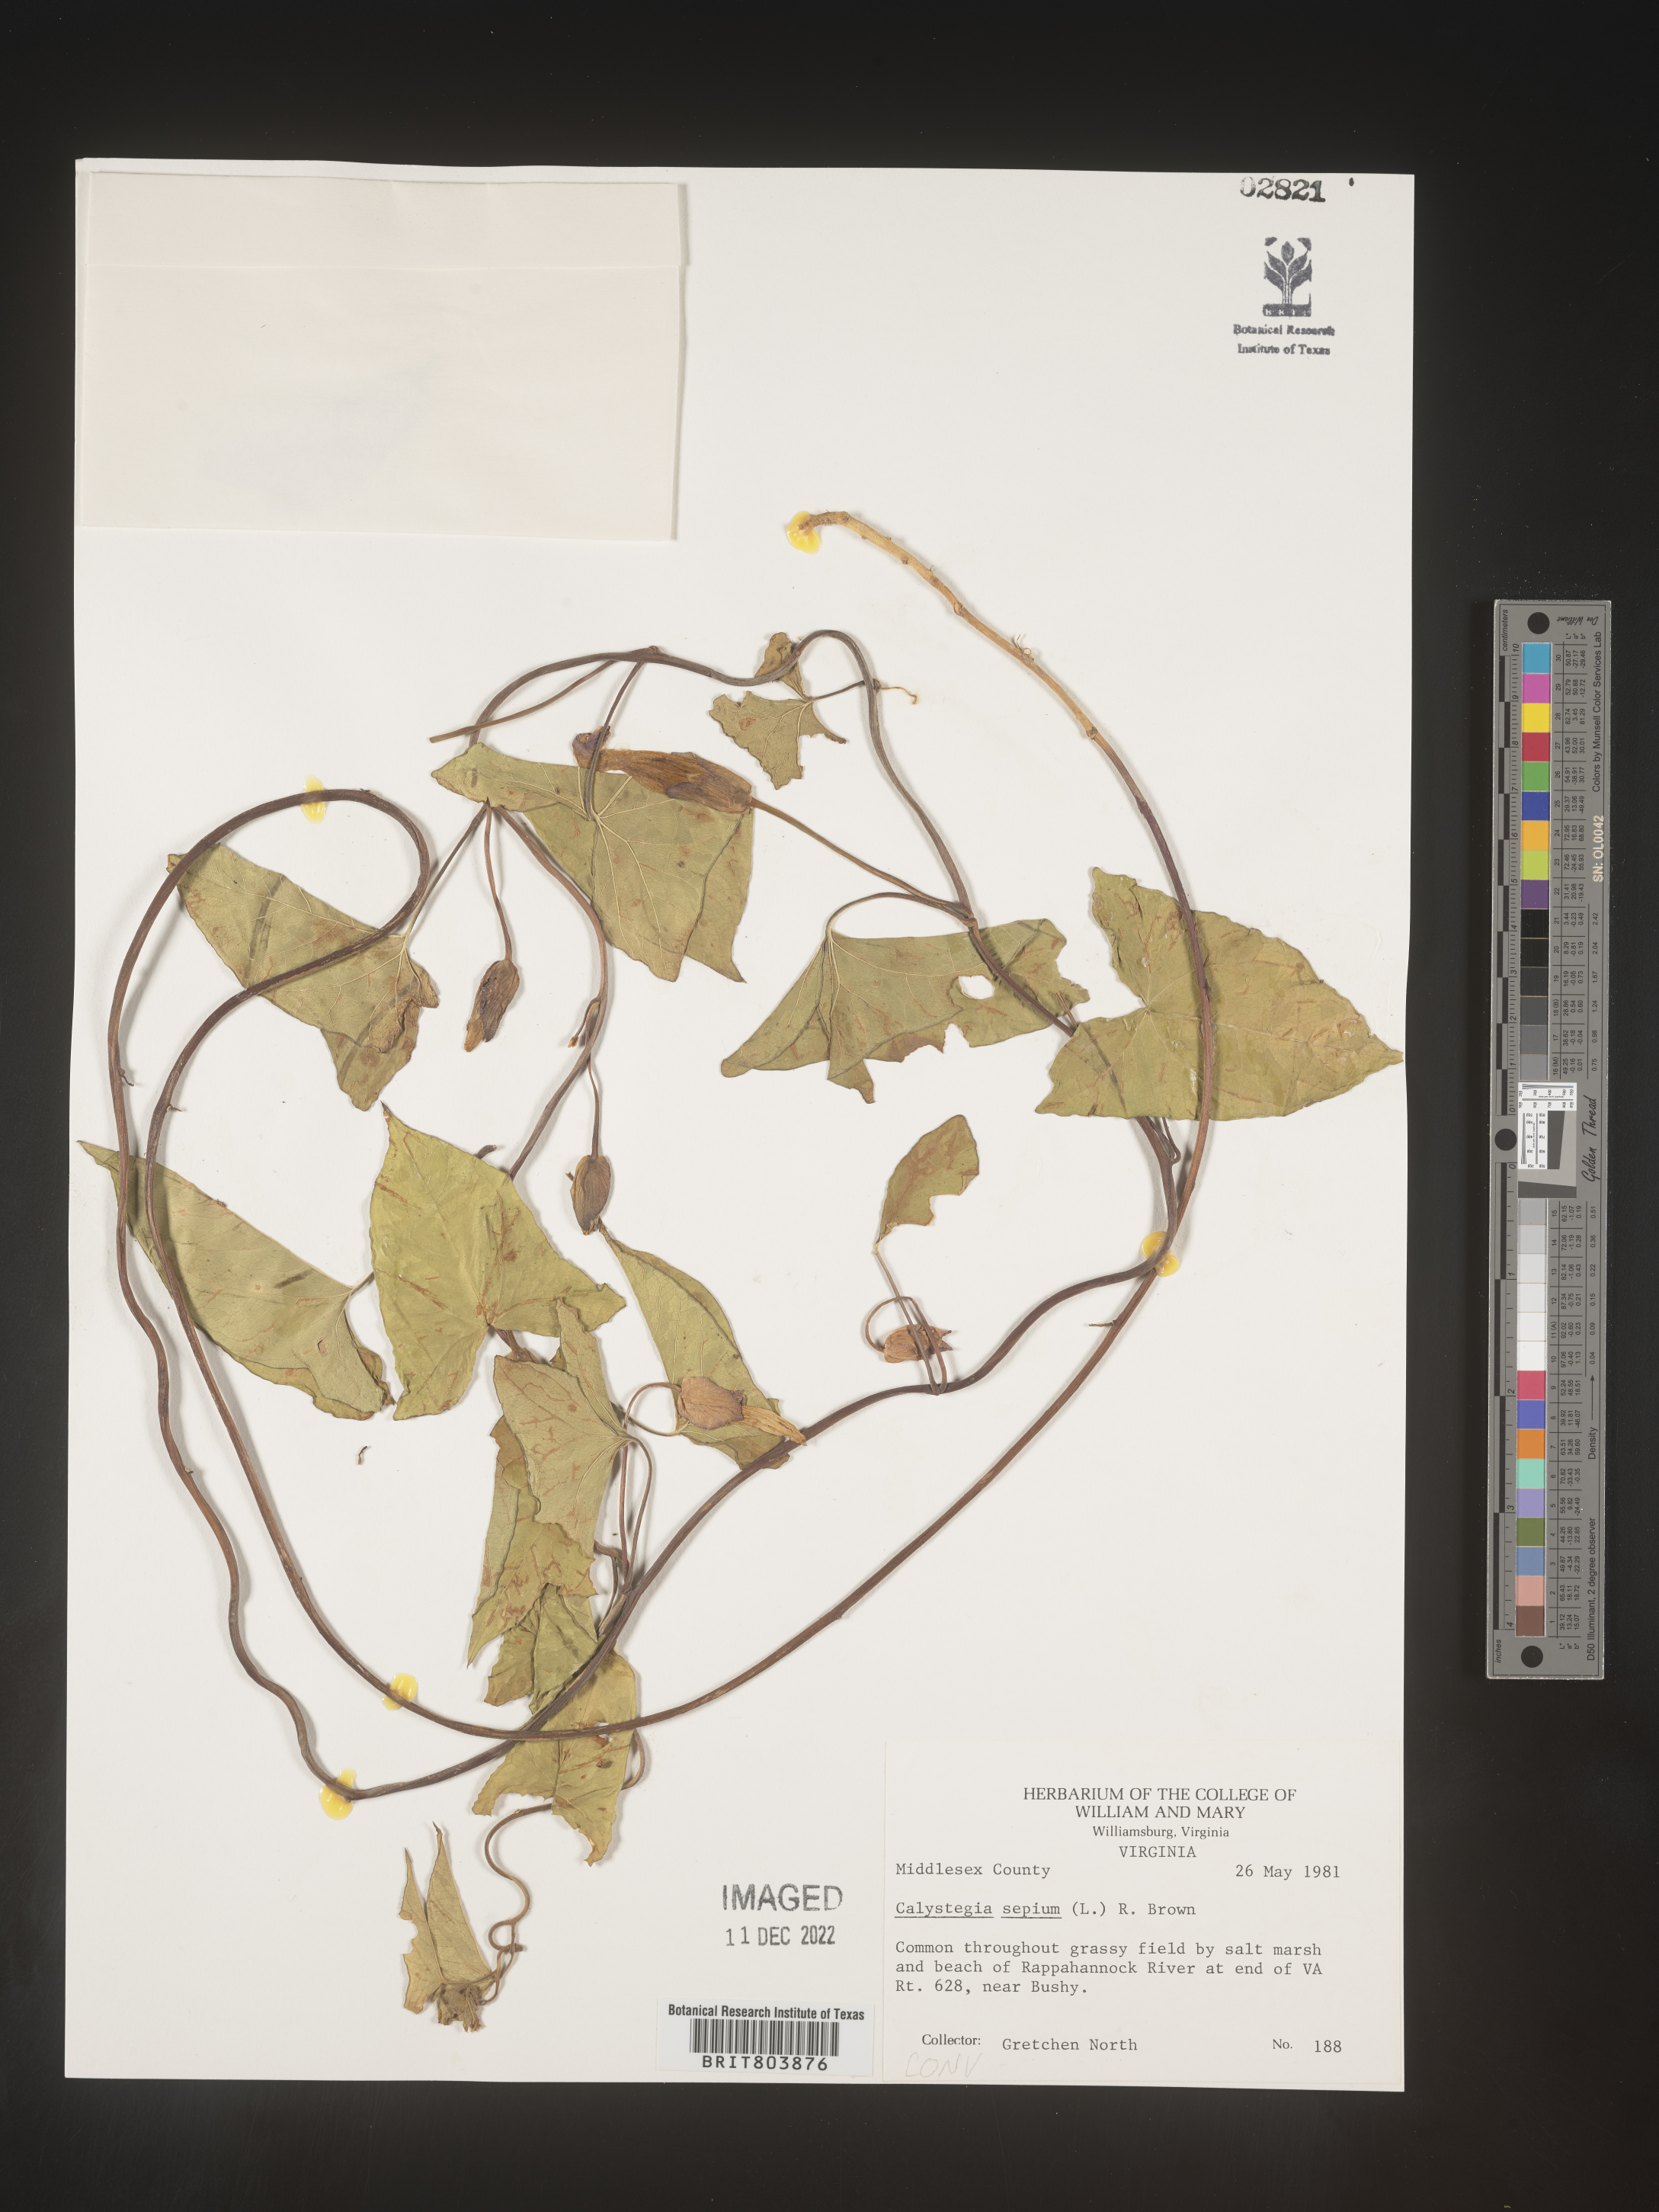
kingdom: Plantae
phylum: Tracheophyta
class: Magnoliopsida
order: Solanales
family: Convolvulaceae
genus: Calystegia
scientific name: Calystegia sepium
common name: Hedge bindweed
